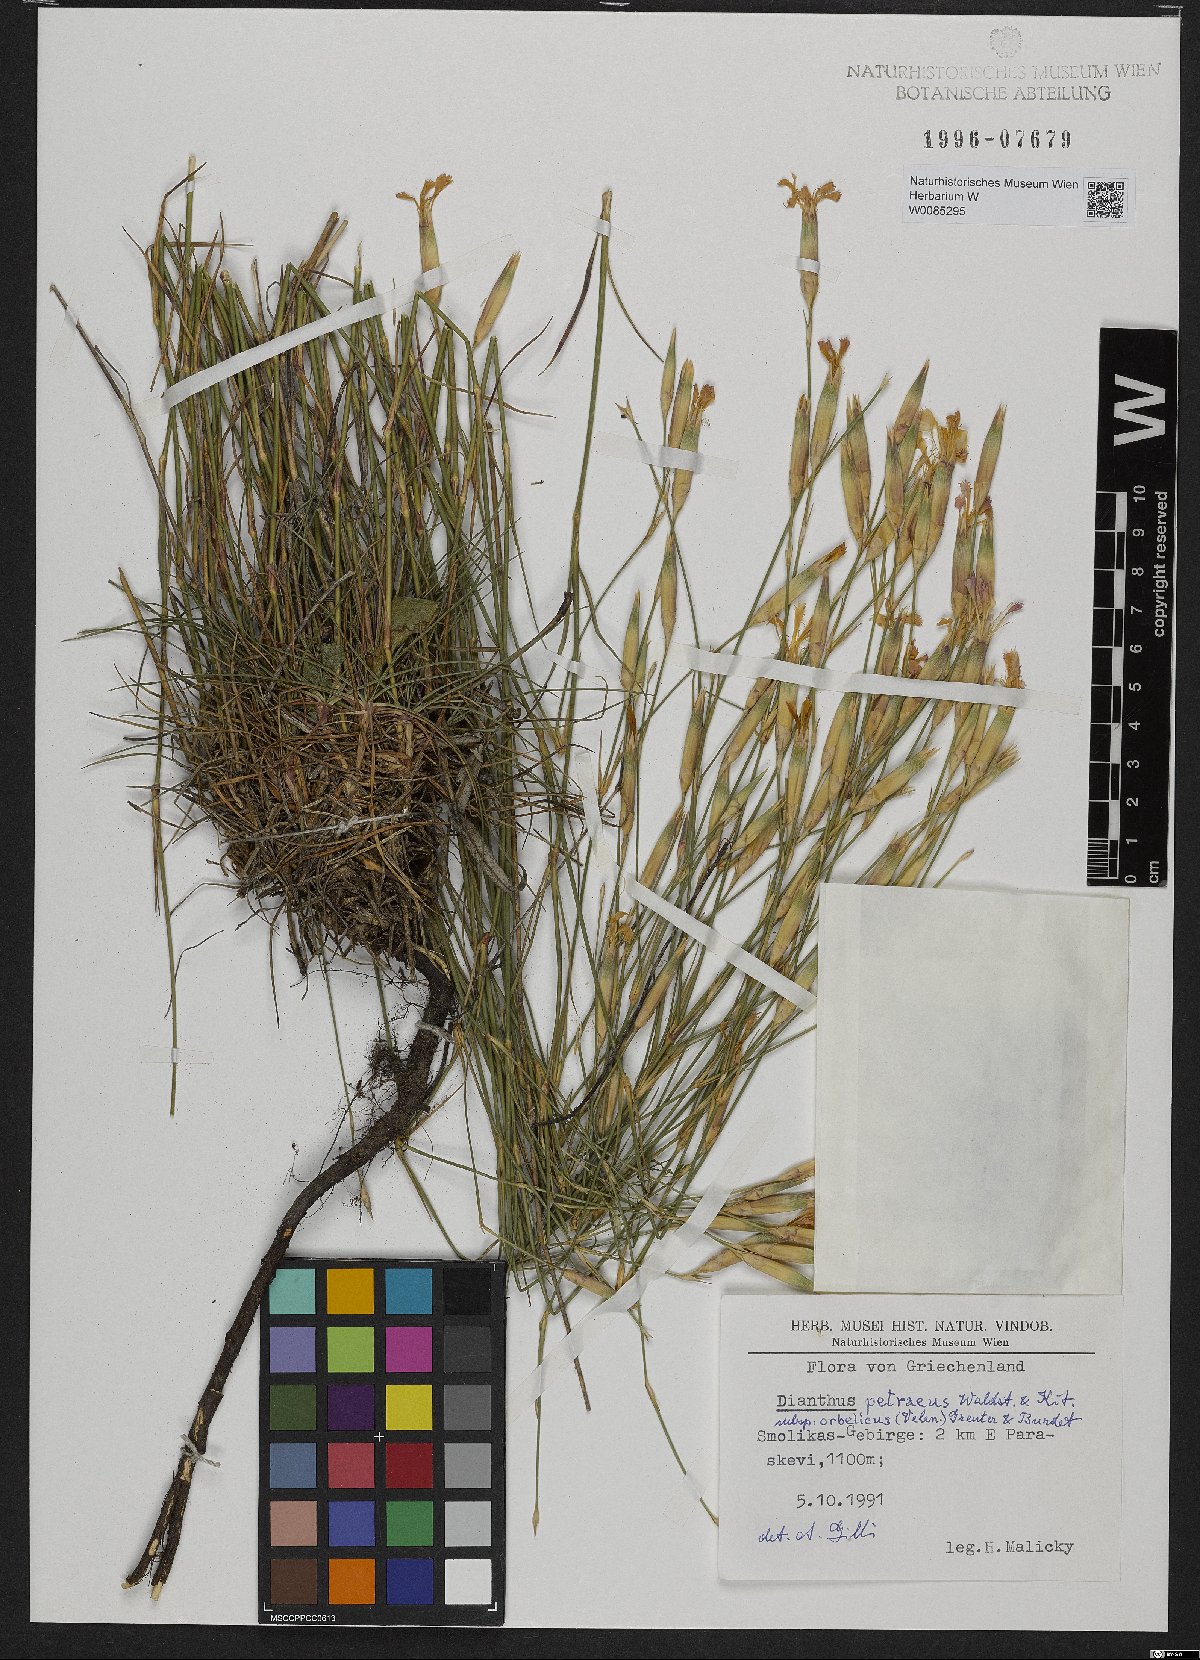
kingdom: Plantae
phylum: Tracheophyta
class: Magnoliopsida
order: Caryophyllales
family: Caryophyllaceae
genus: Dianthus
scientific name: Dianthus petraeus
